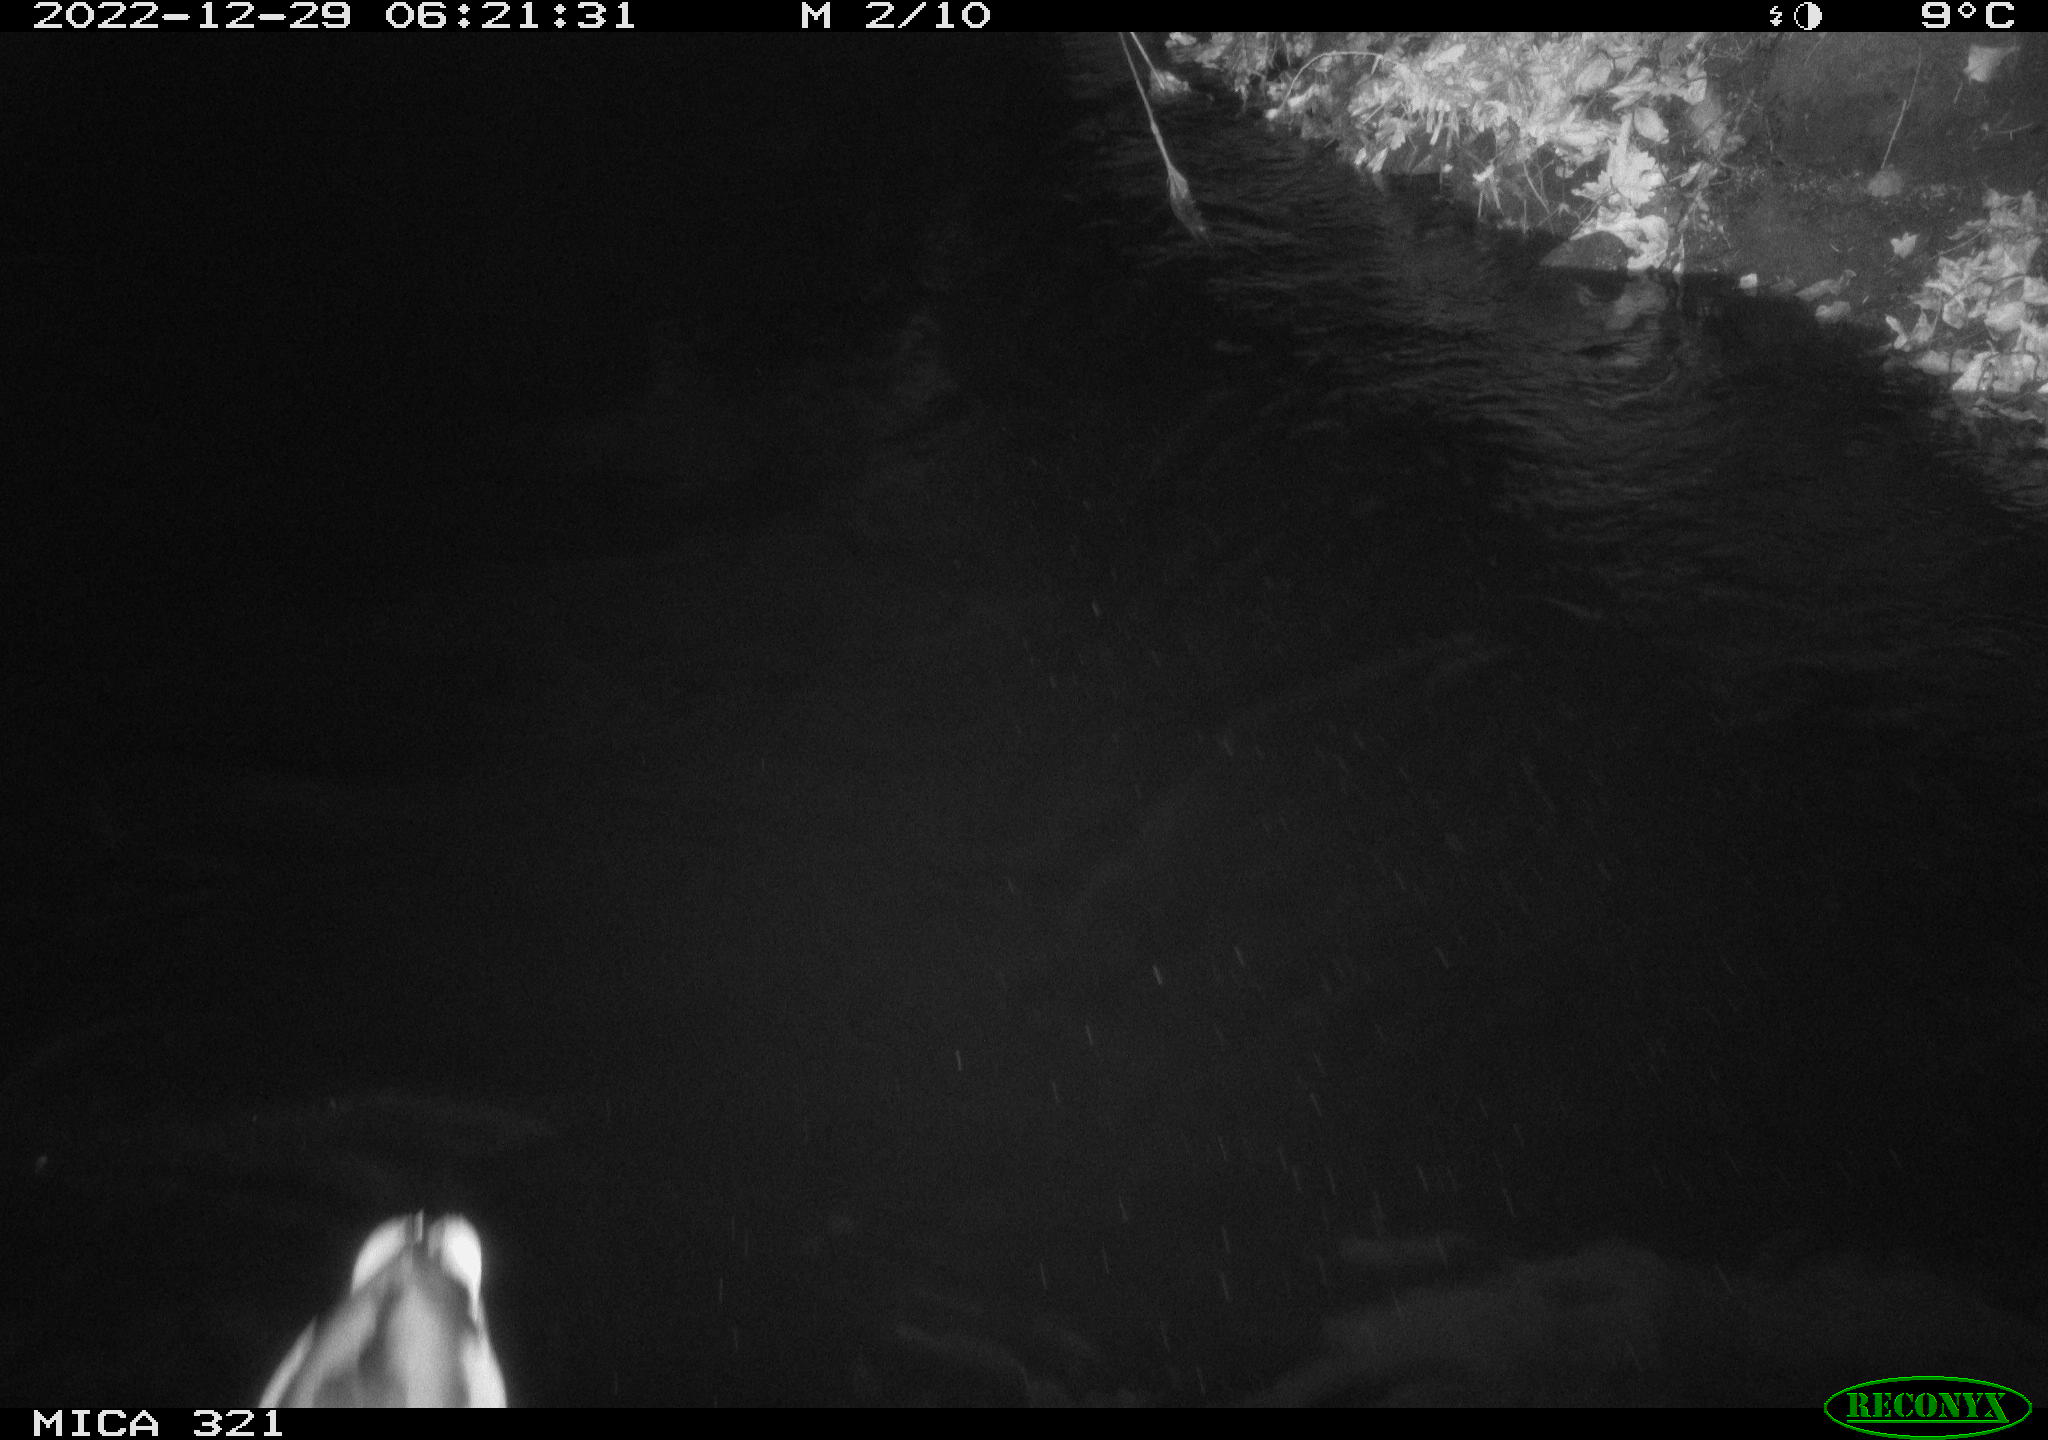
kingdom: Animalia
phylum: Chordata
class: Aves
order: Anseriformes
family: Anatidae
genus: Anas
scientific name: Anas
